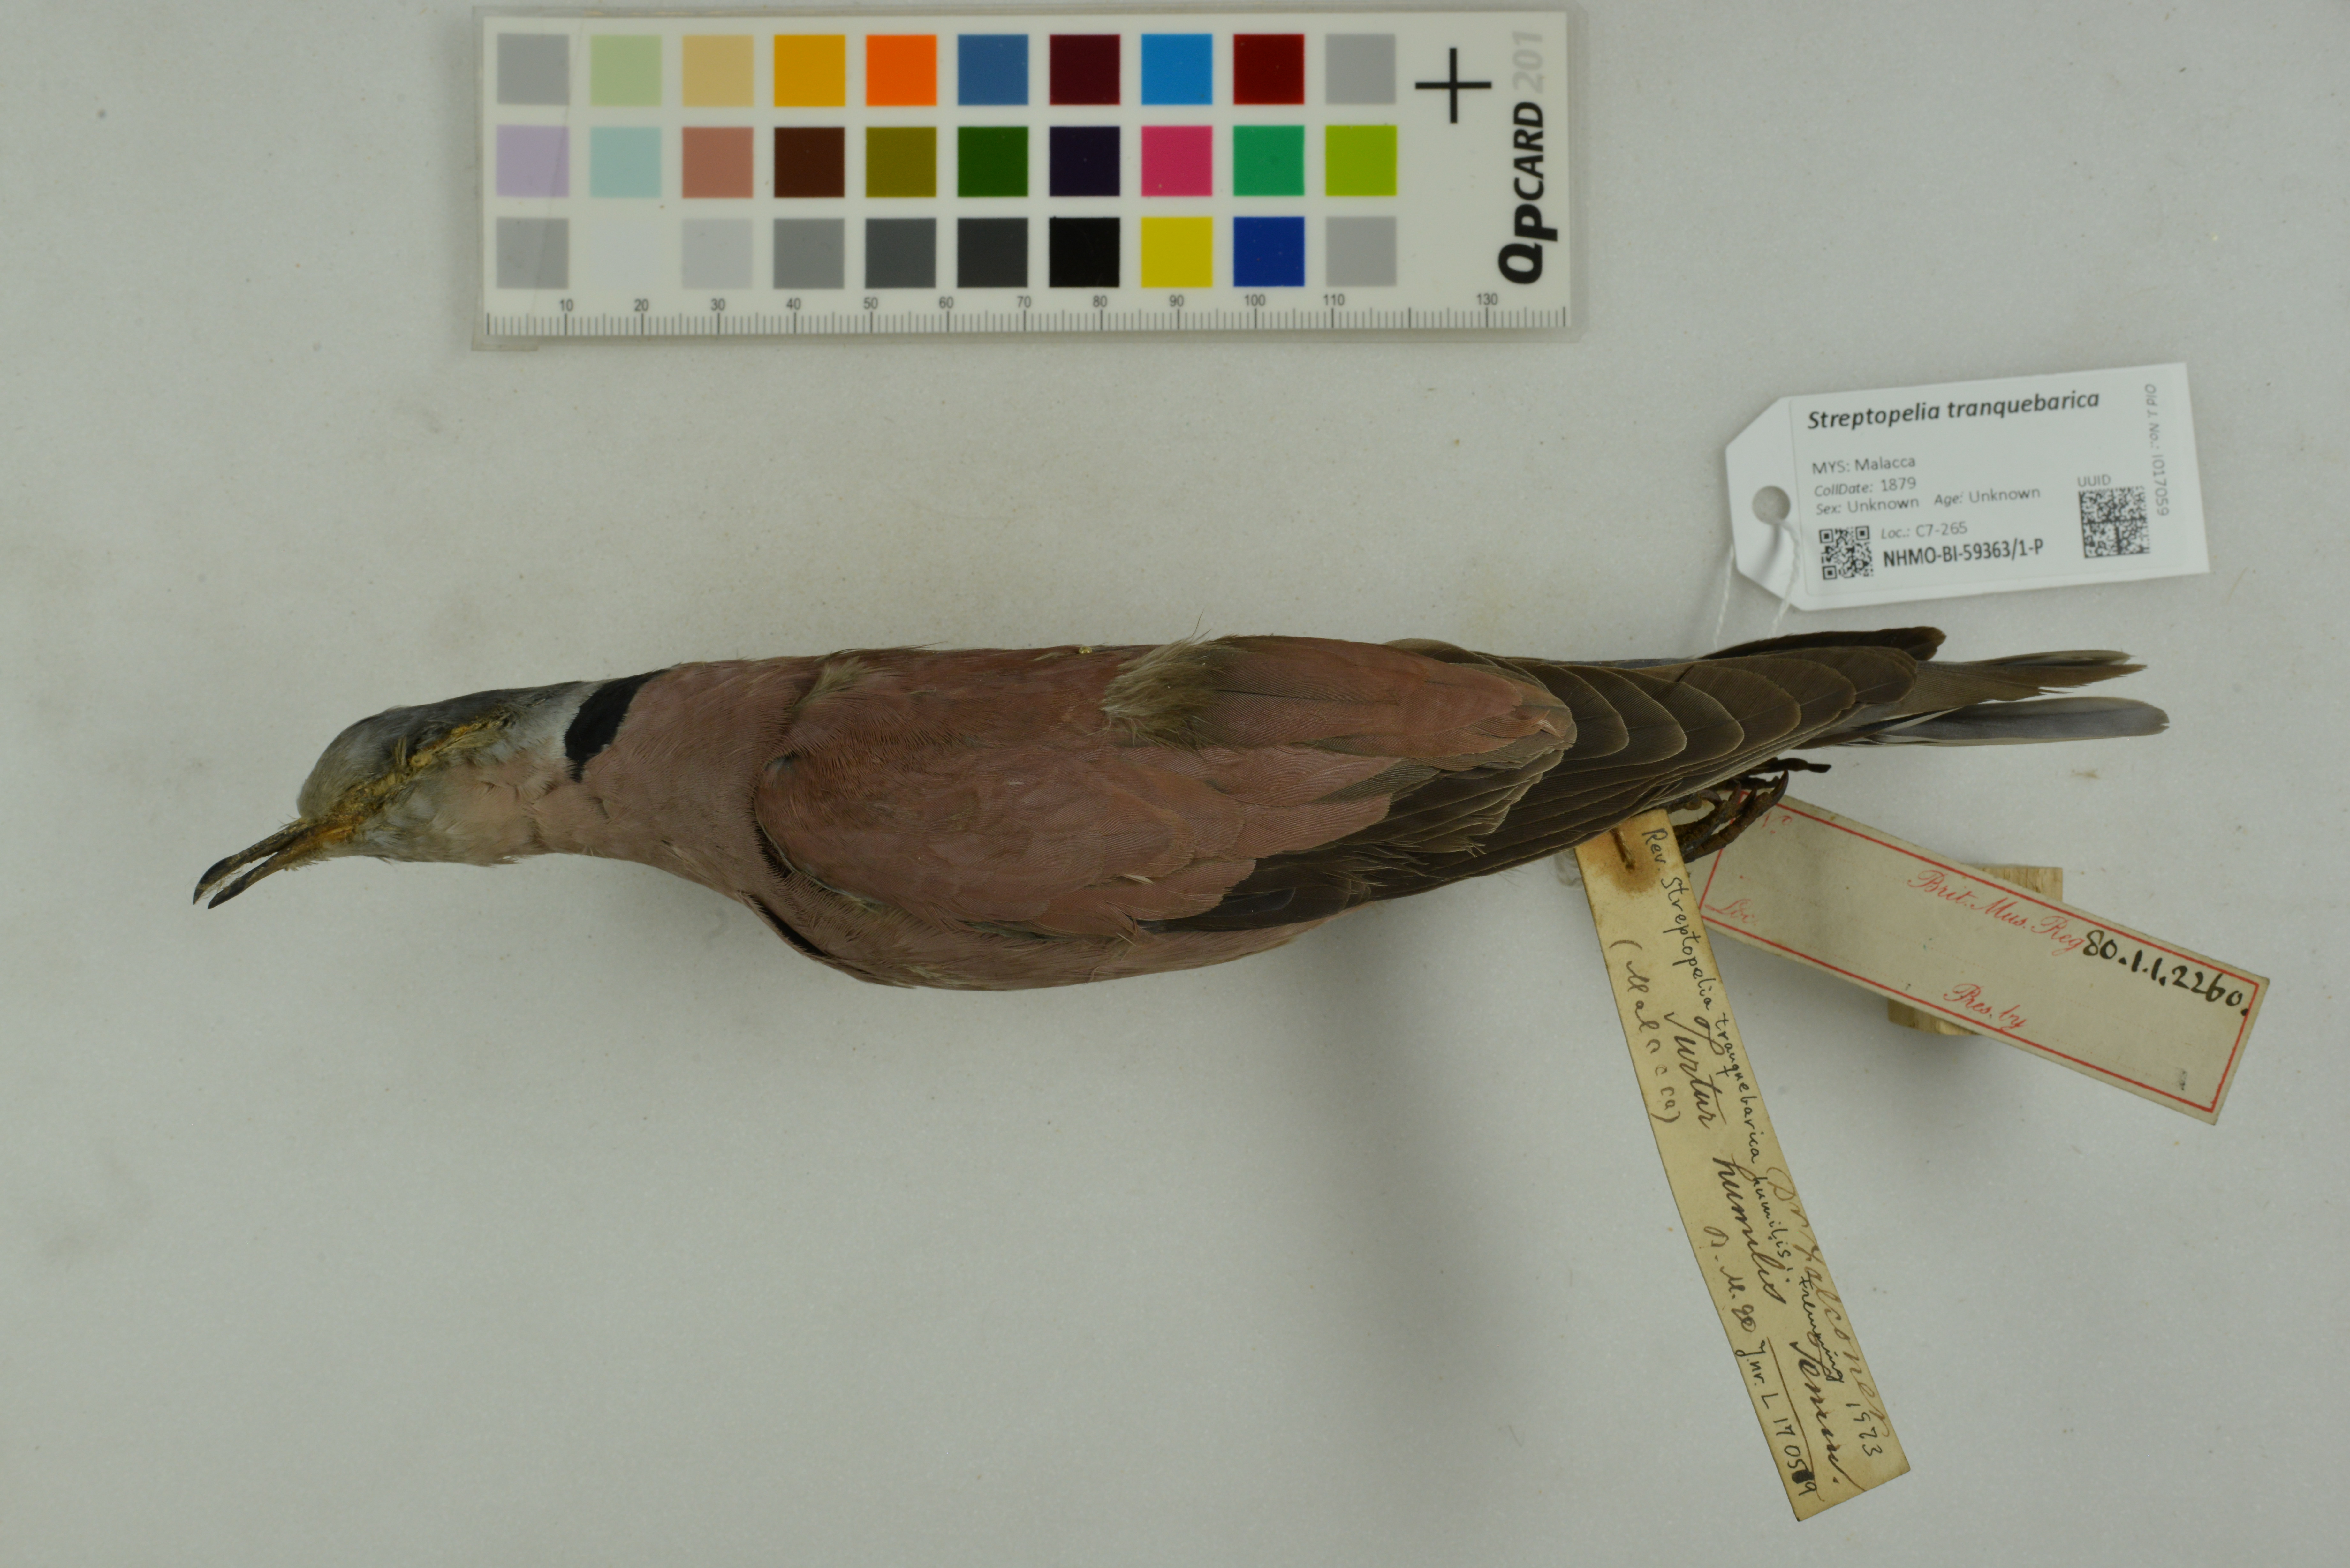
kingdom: Animalia
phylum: Chordata
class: Aves
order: Columbiformes
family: Columbidae
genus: Streptopelia
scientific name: Streptopelia tranquebarica
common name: Red turtle dove
